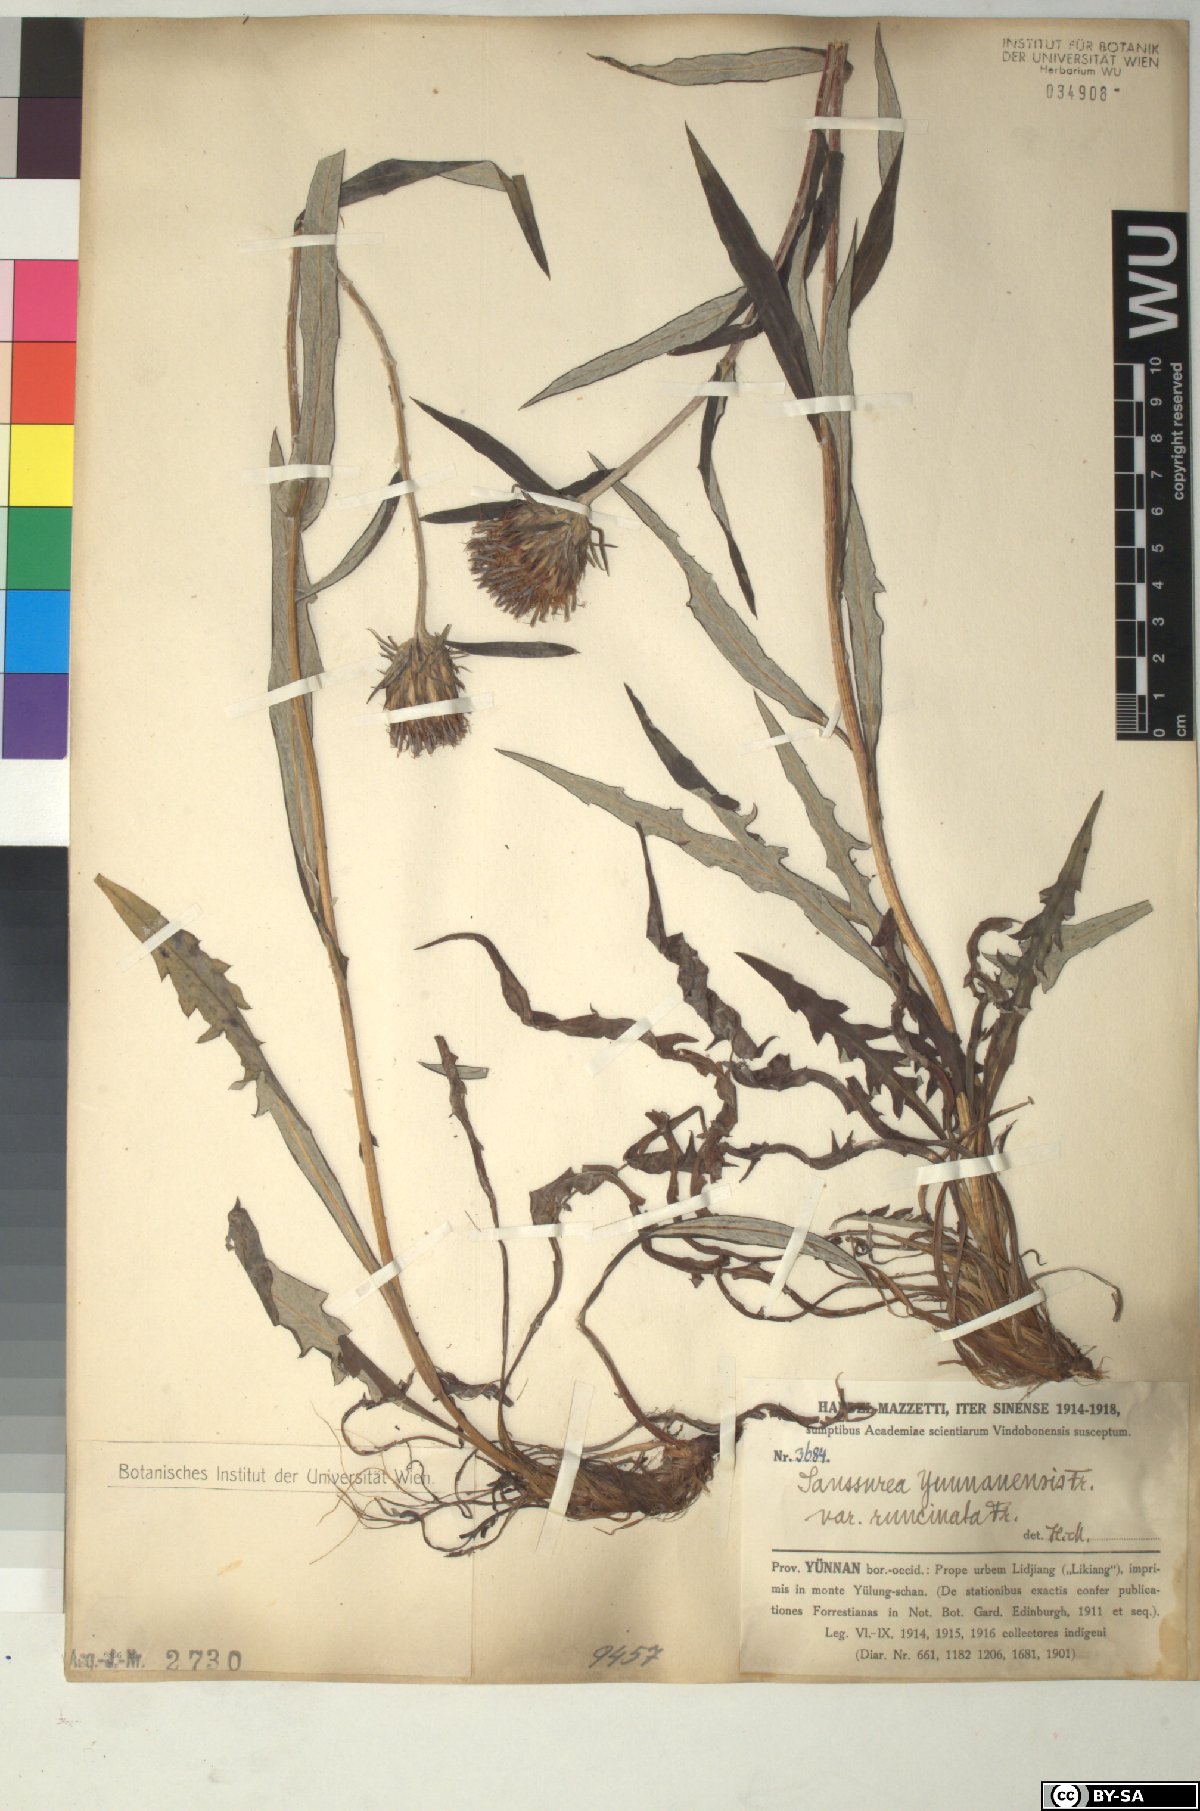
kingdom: Plantae
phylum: Tracheophyta
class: Magnoliopsida
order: Asterales
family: Asteraceae
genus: Saussurea
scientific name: Saussurea yunnanensis
